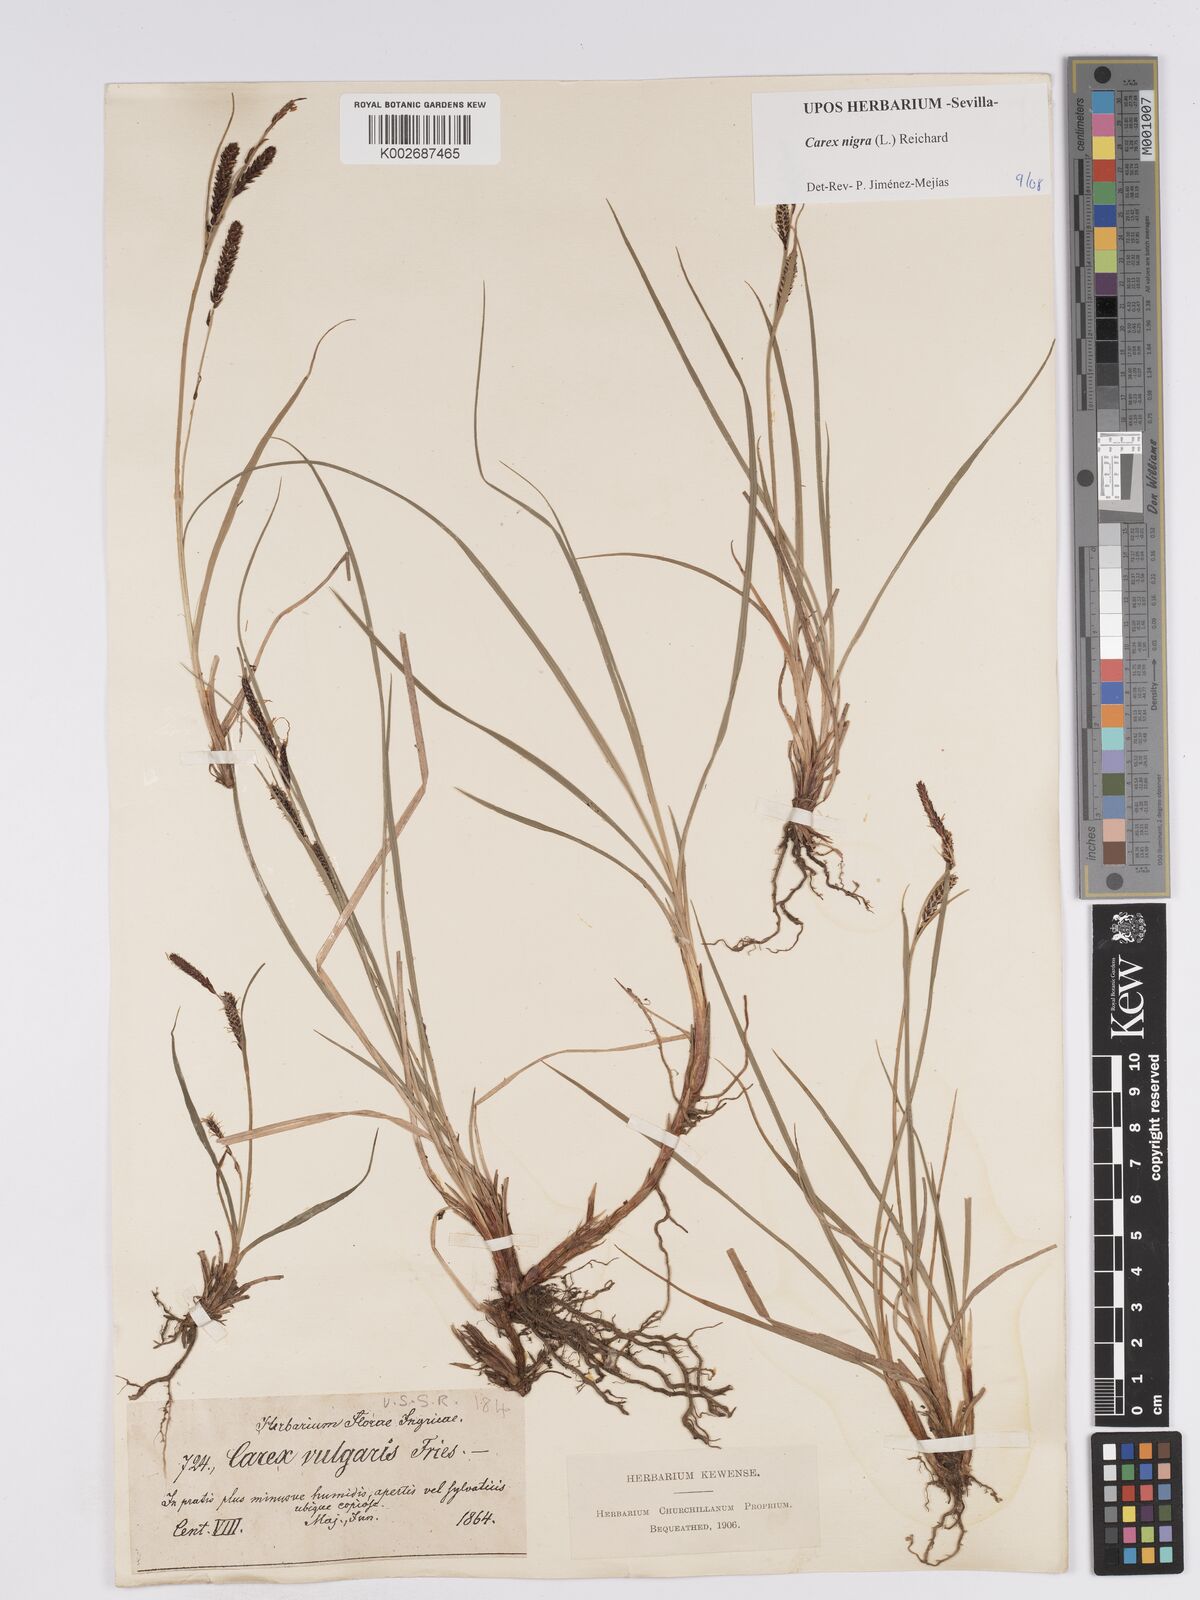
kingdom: Plantae
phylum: Tracheophyta
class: Liliopsida
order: Poales
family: Cyperaceae
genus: Carex
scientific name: Carex nigra
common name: Common sedge
